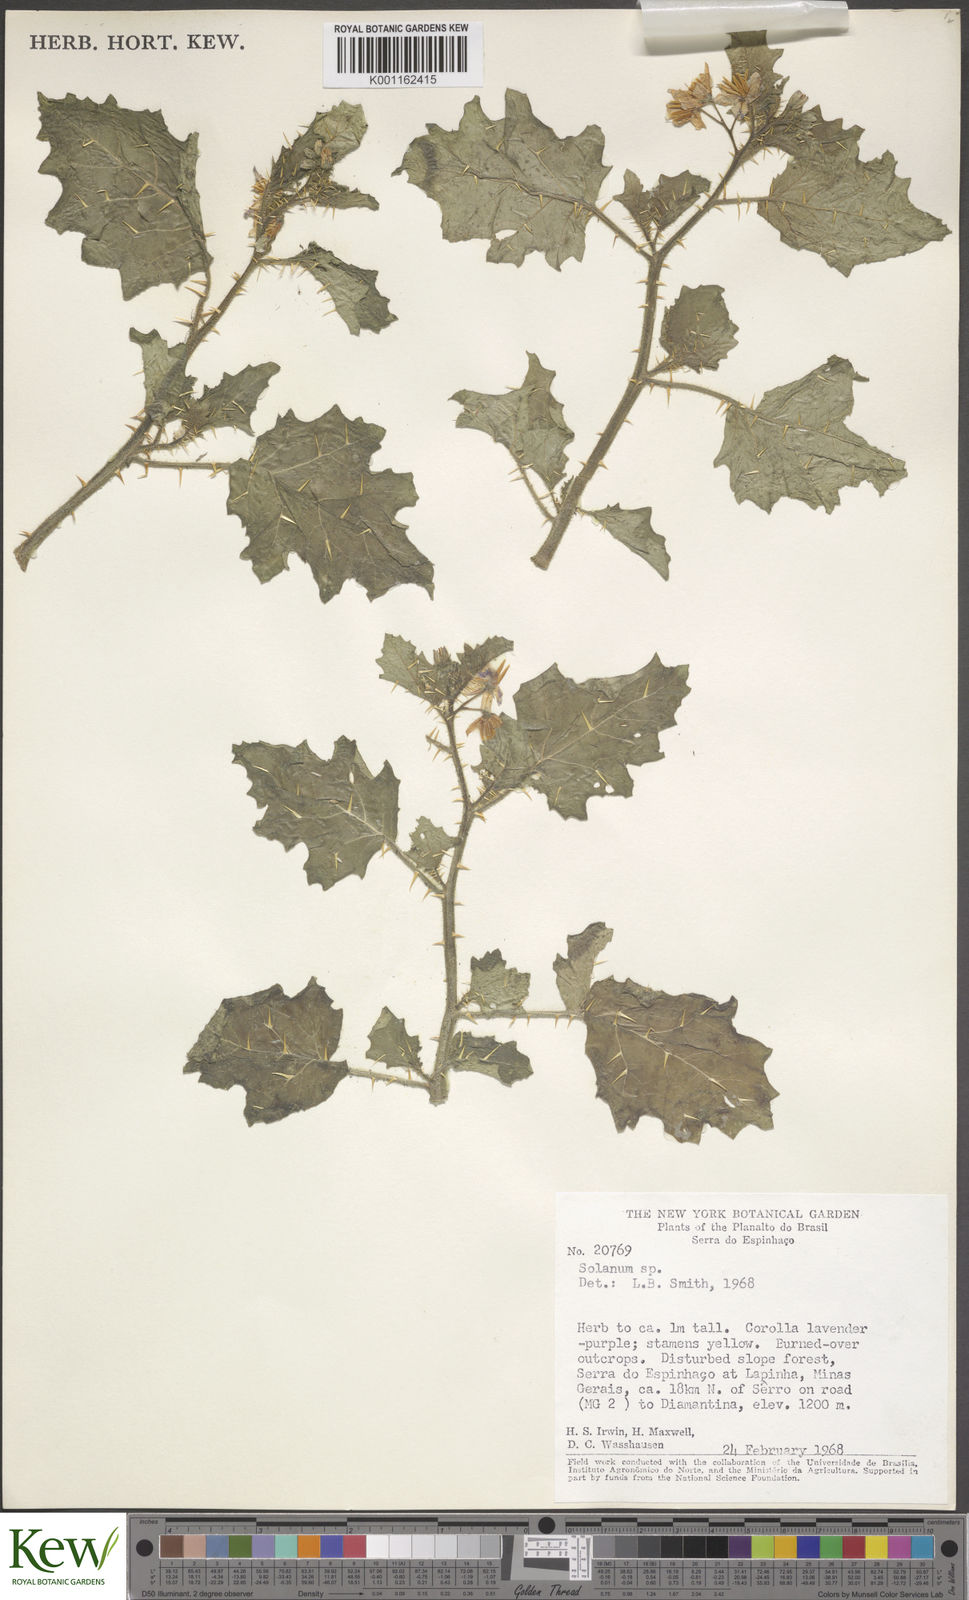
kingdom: Plantae
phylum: Tracheophyta
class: Magnoliopsida
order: Solanales
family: Solanaceae
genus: Solanum
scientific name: Solanum sellowii
